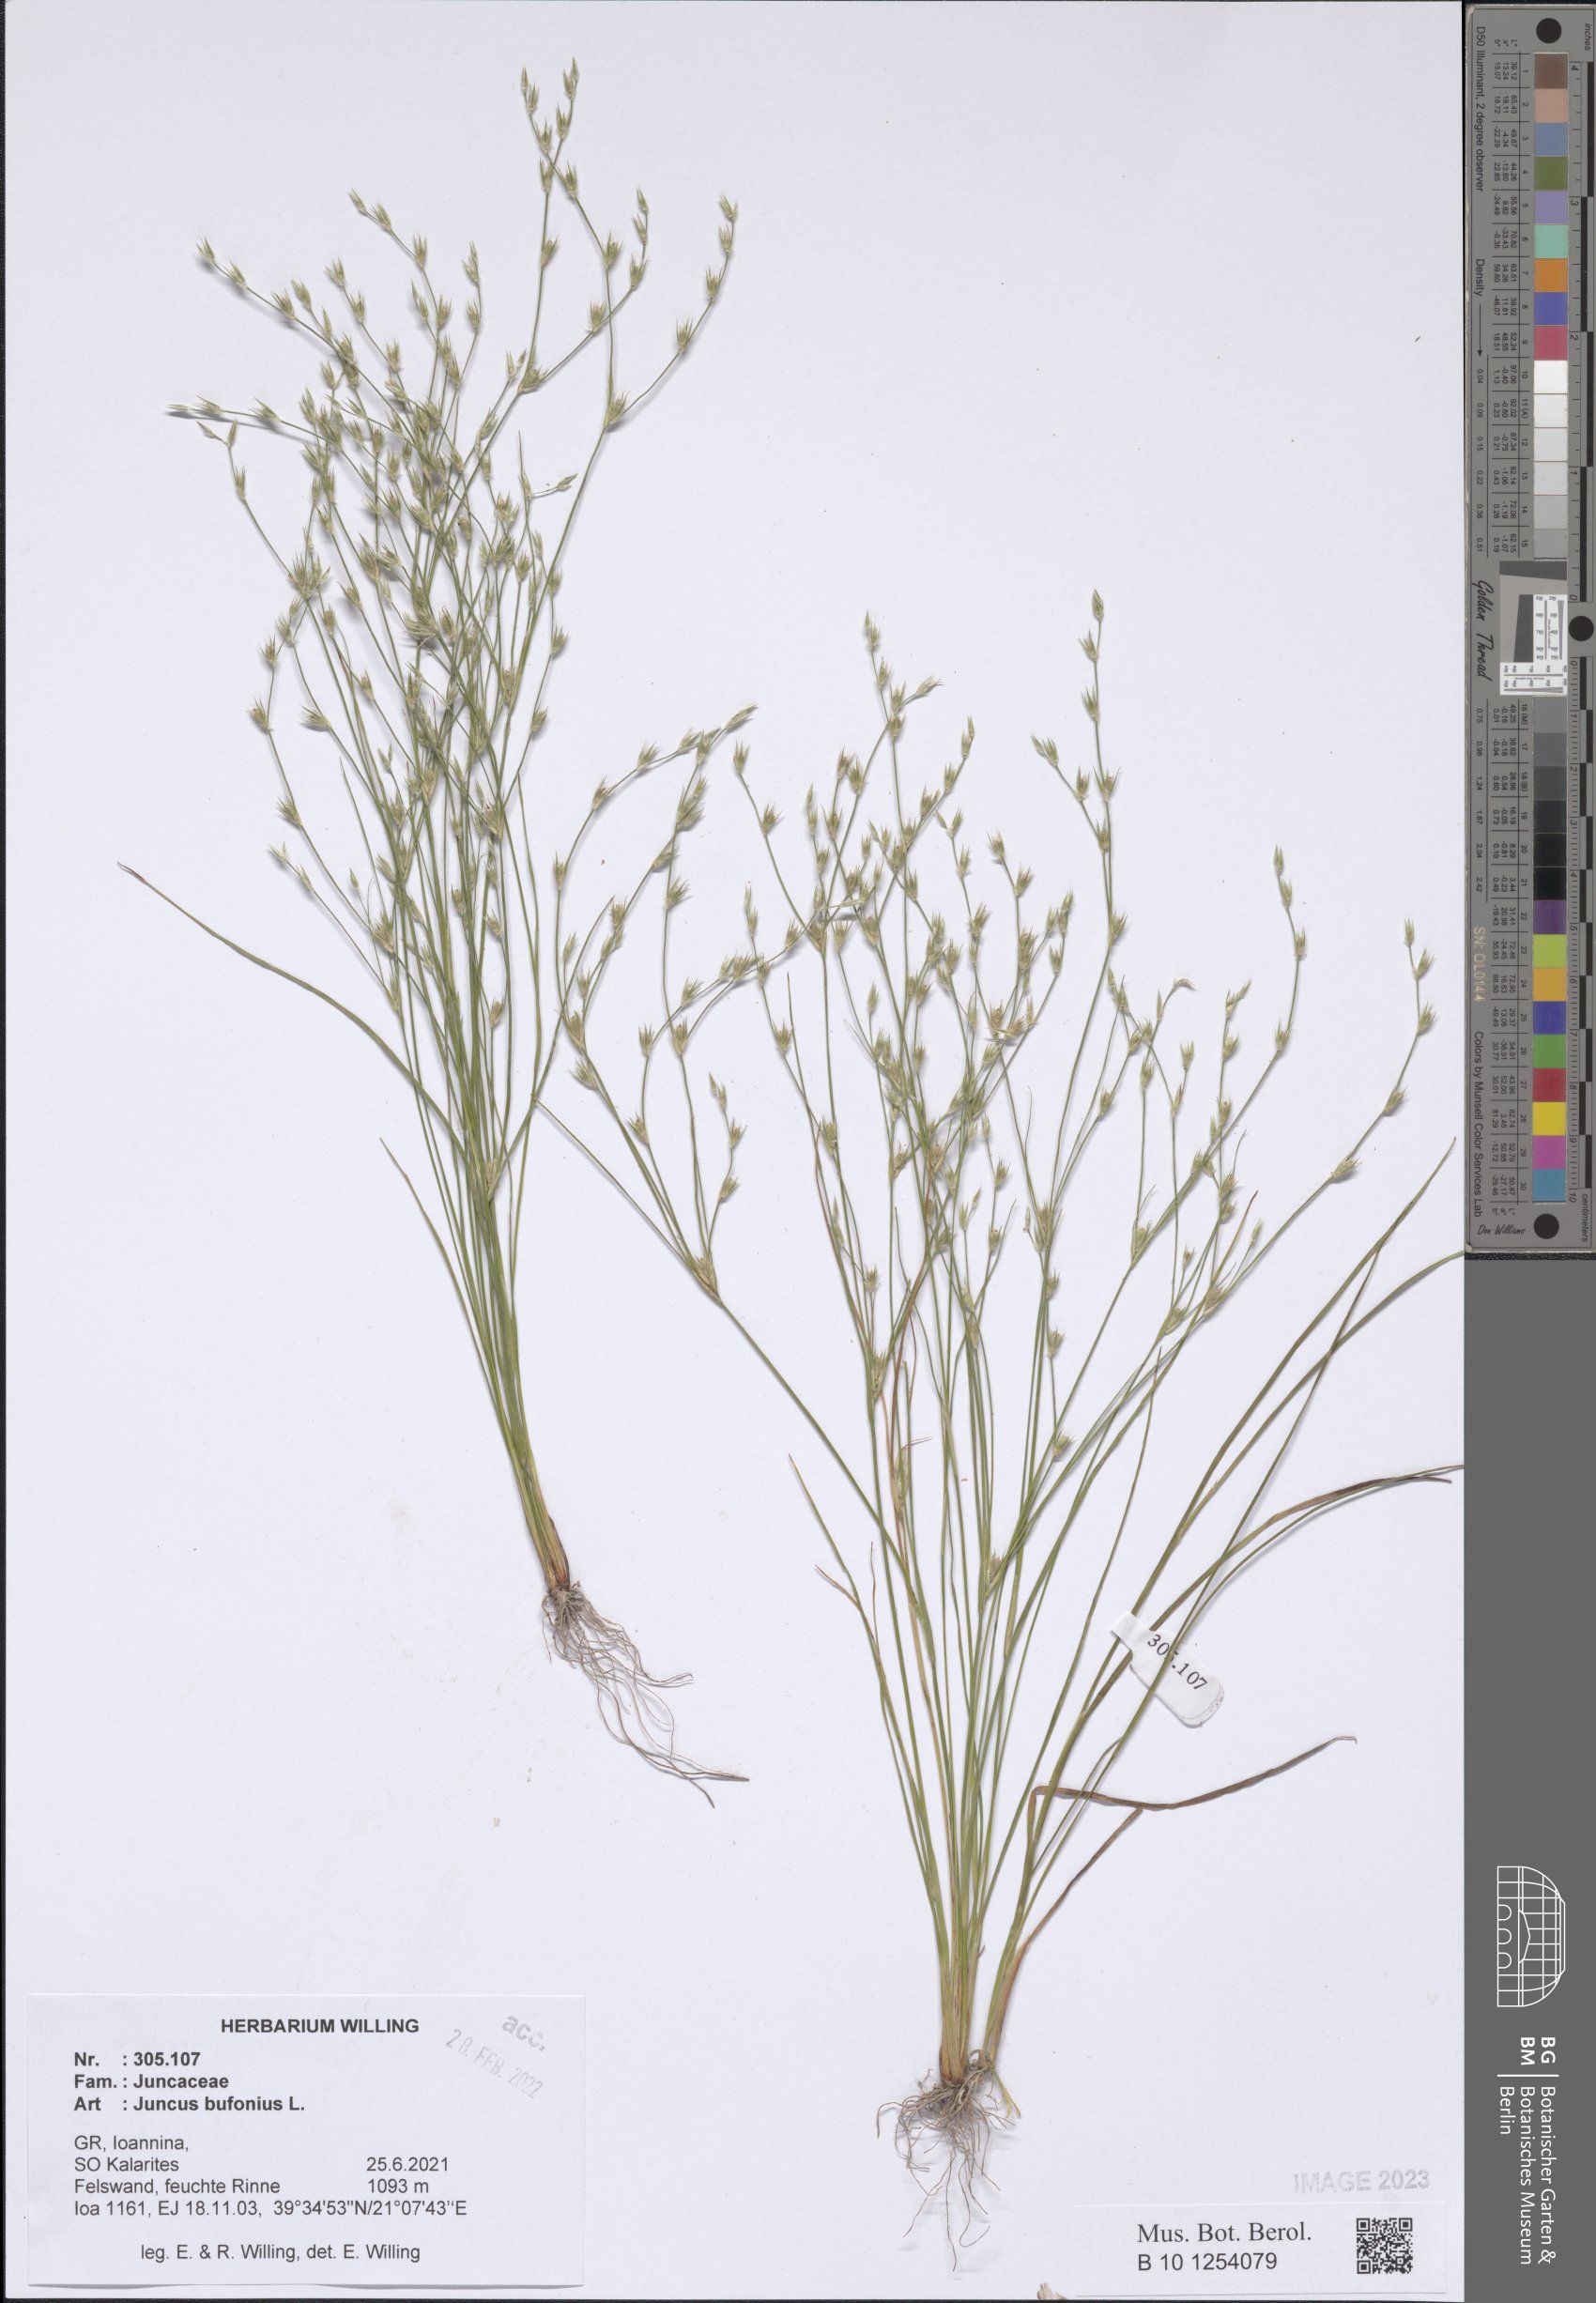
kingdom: Plantae
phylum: Tracheophyta
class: Liliopsida
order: Poales
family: Juncaceae
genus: Juncus
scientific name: Juncus bufonius
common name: Toad rush
